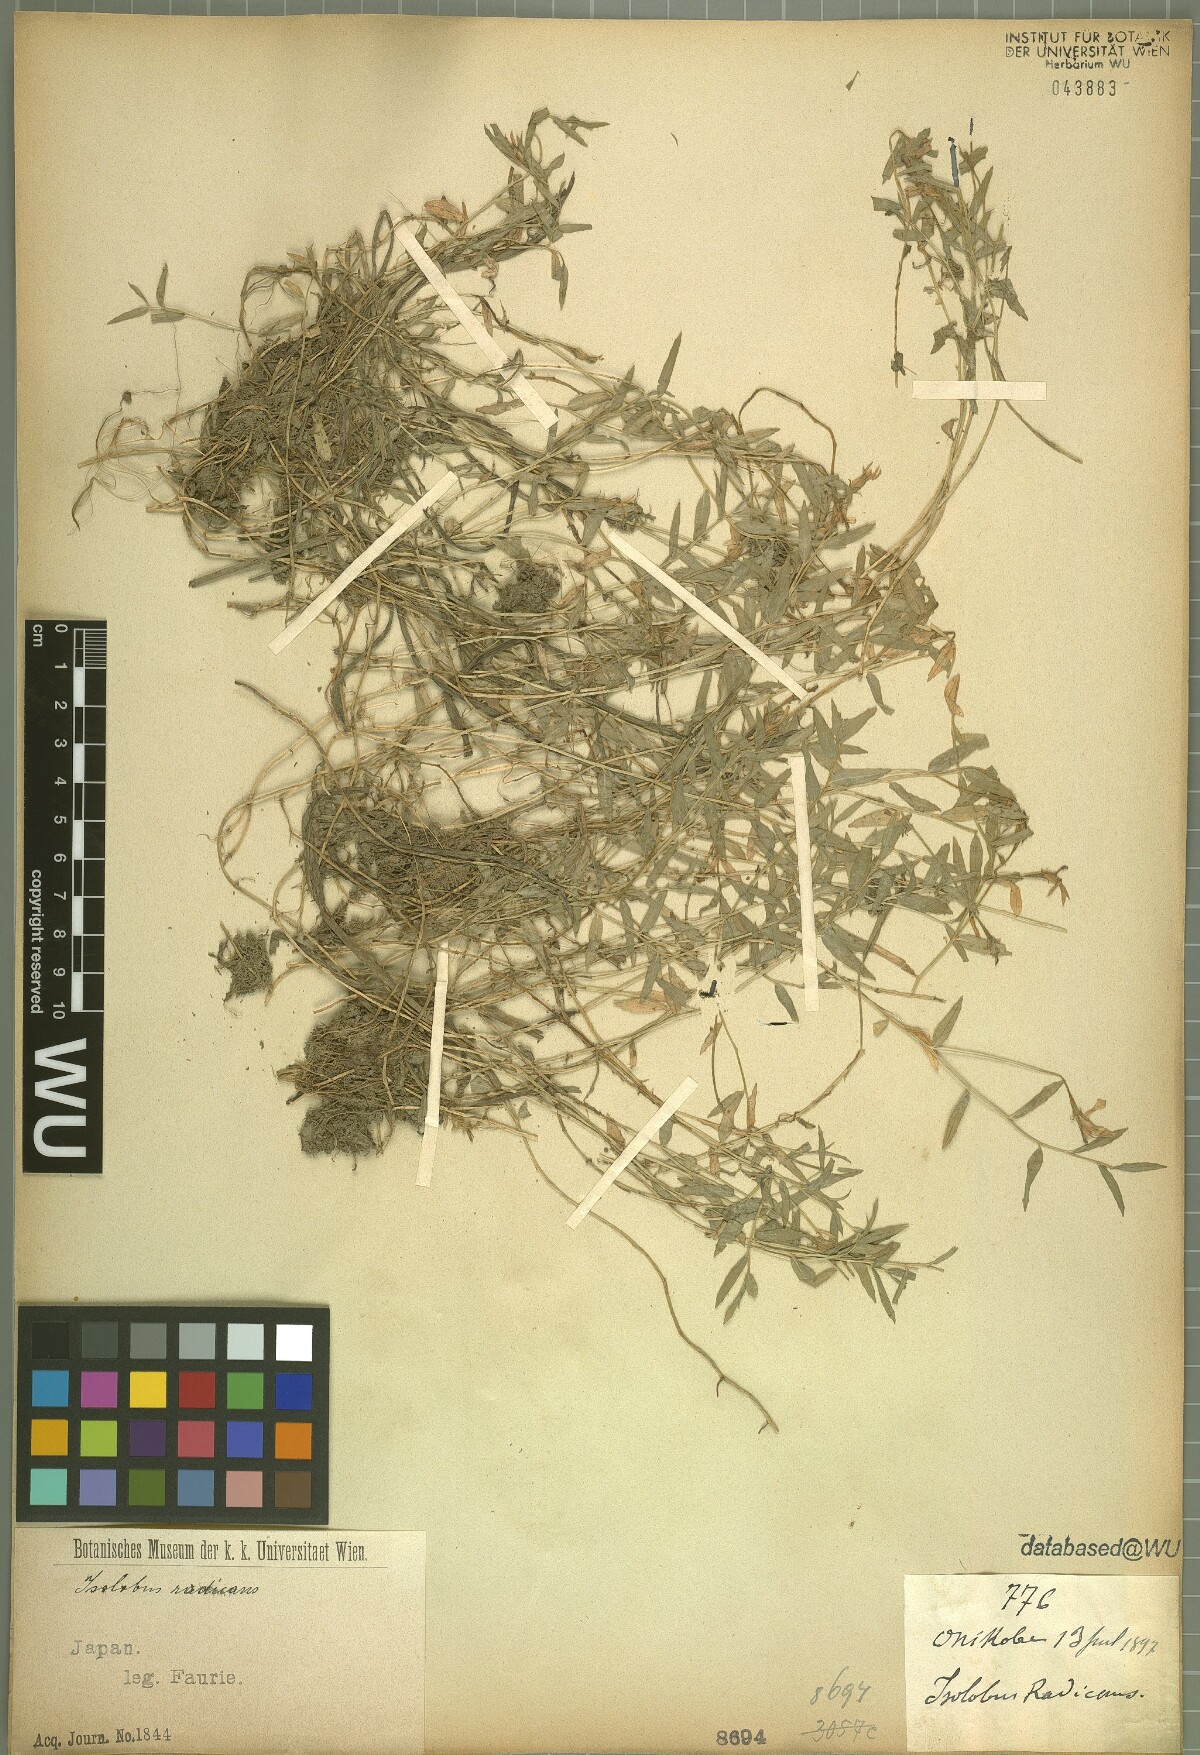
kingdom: Plantae
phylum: Tracheophyta
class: Magnoliopsida
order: Asterales
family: Campanulaceae
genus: Lobelia
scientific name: Lobelia chinensis
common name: Chinese lobelia
